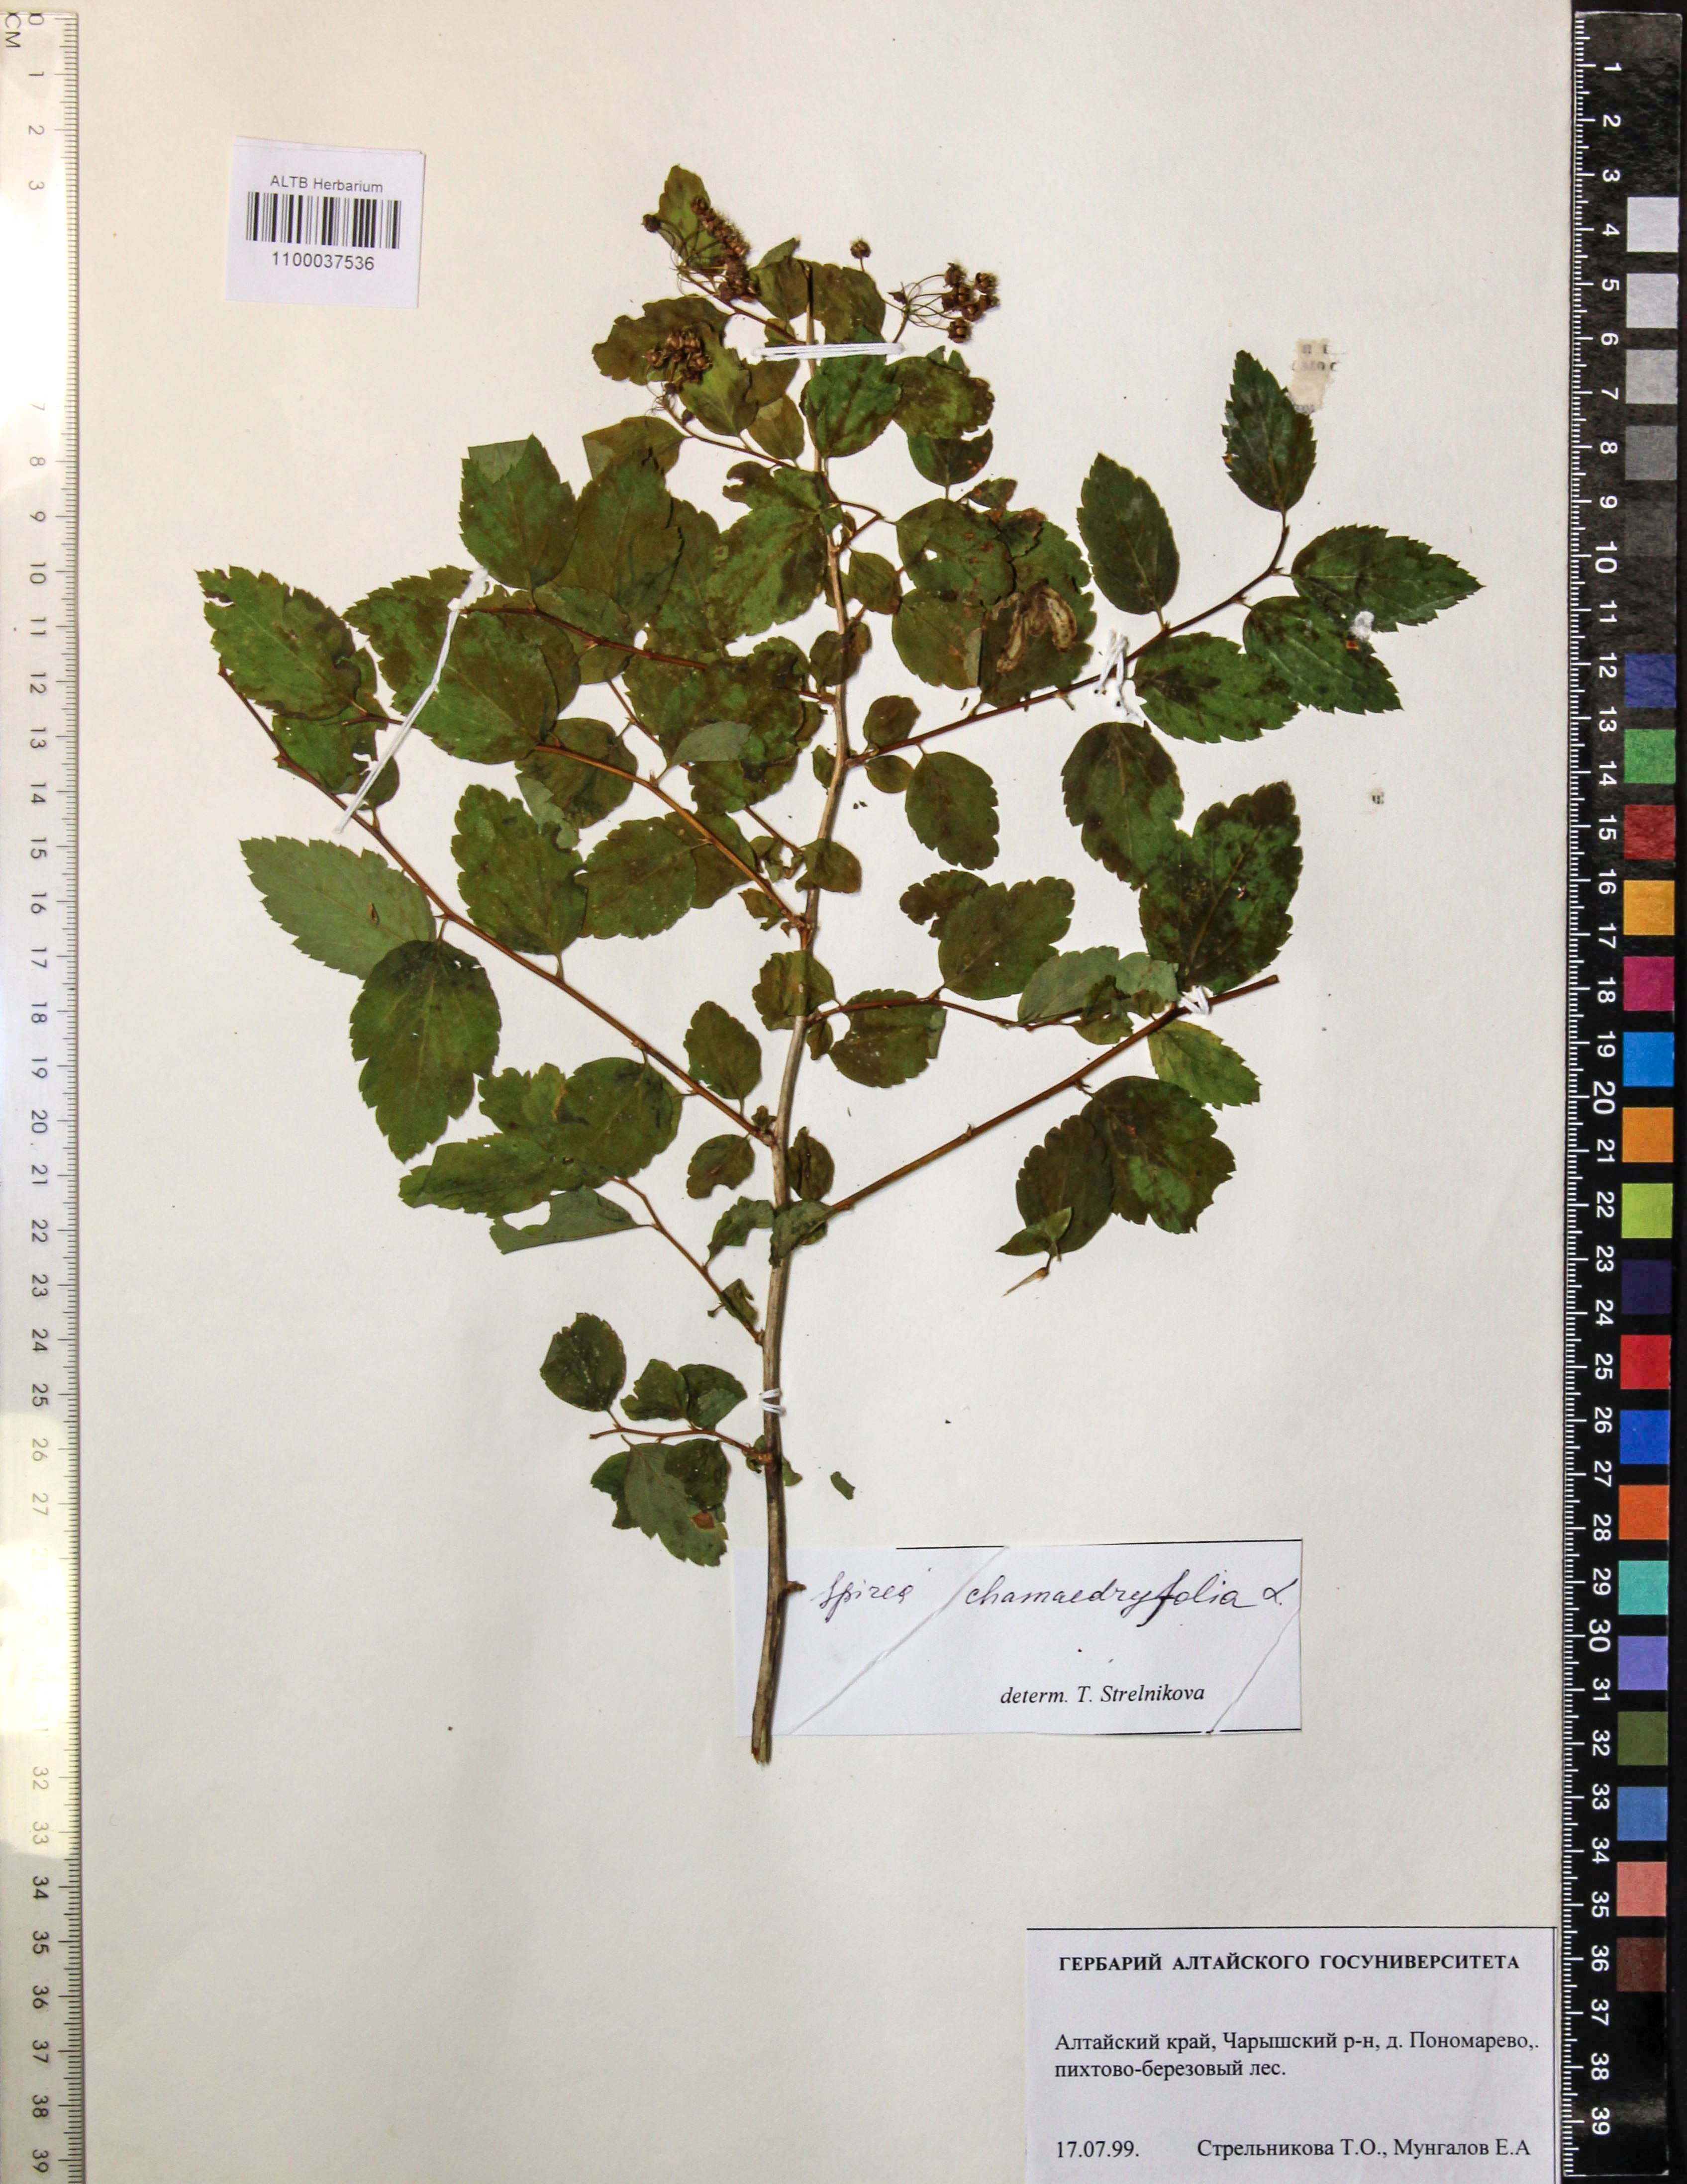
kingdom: Plantae
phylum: Tracheophyta
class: Magnoliopsida
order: Rosales
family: Rosaceae
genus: Spiraea
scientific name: Spiraea chamaedryfolia
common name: Elm-leaved spiraea
